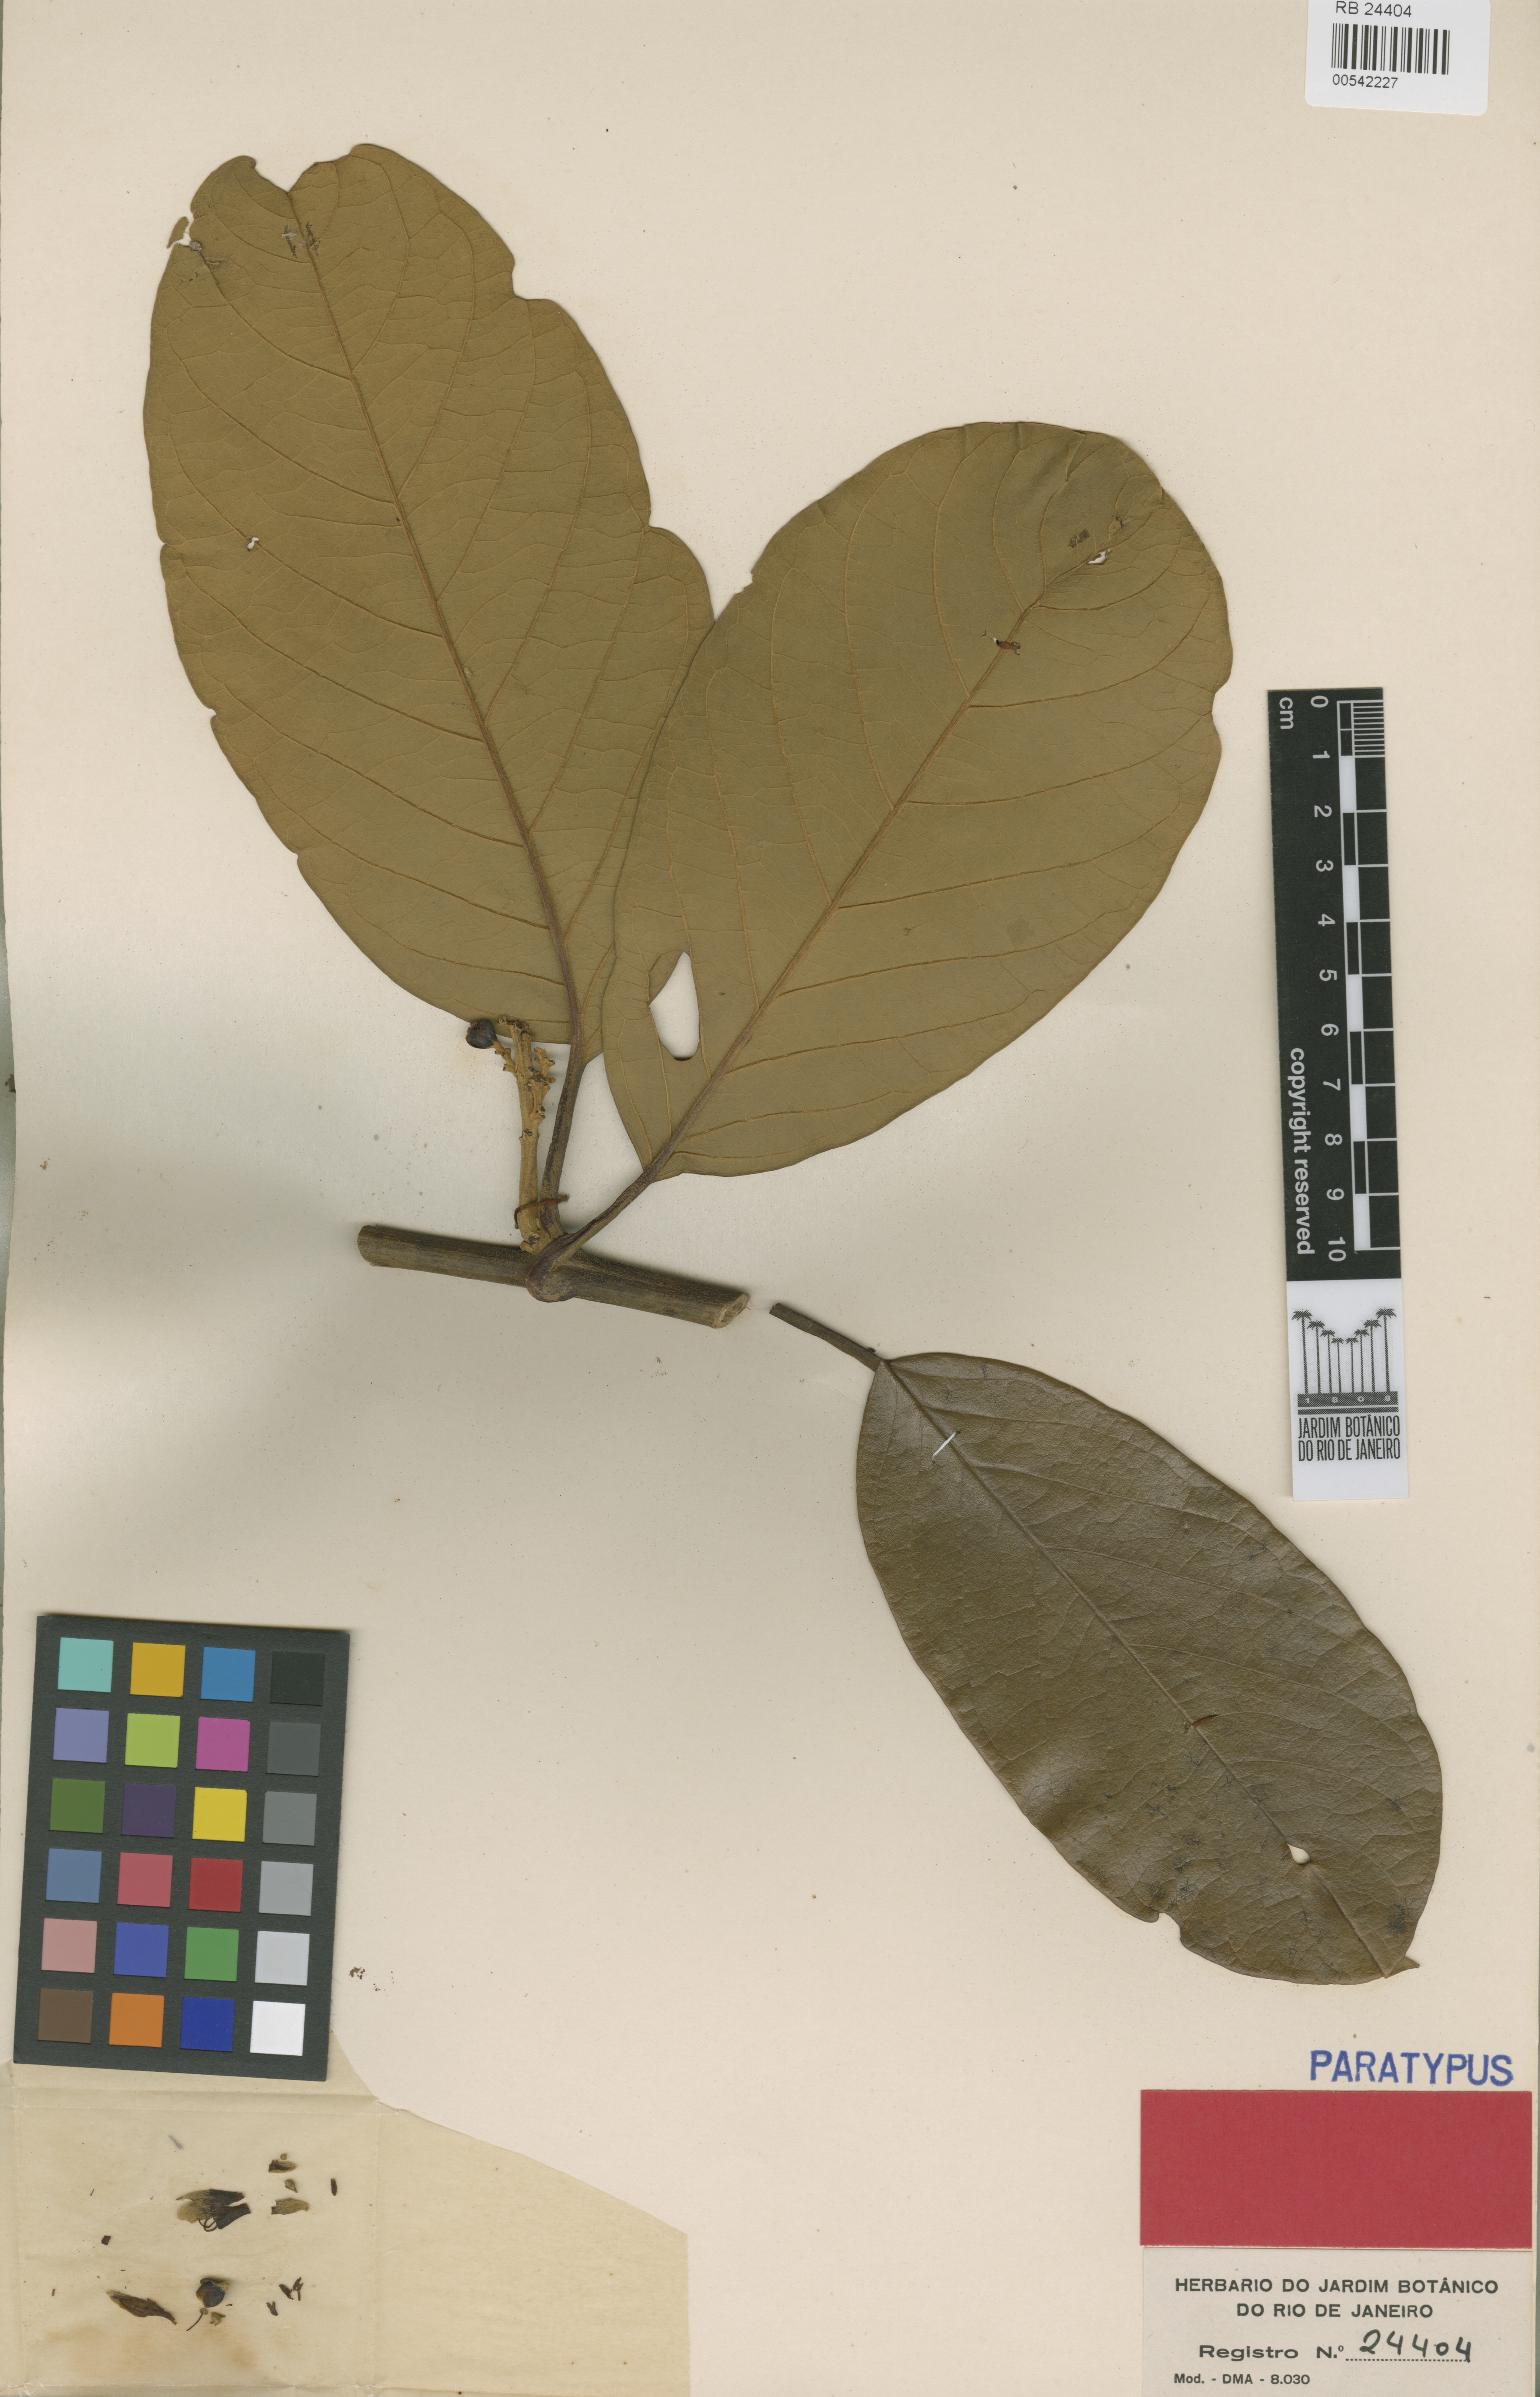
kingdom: Plantae
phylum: Tracheophyta
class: Magnoliopsida
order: Solanales
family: Convolvulaceae
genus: Maripa
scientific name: Maripa elongata
